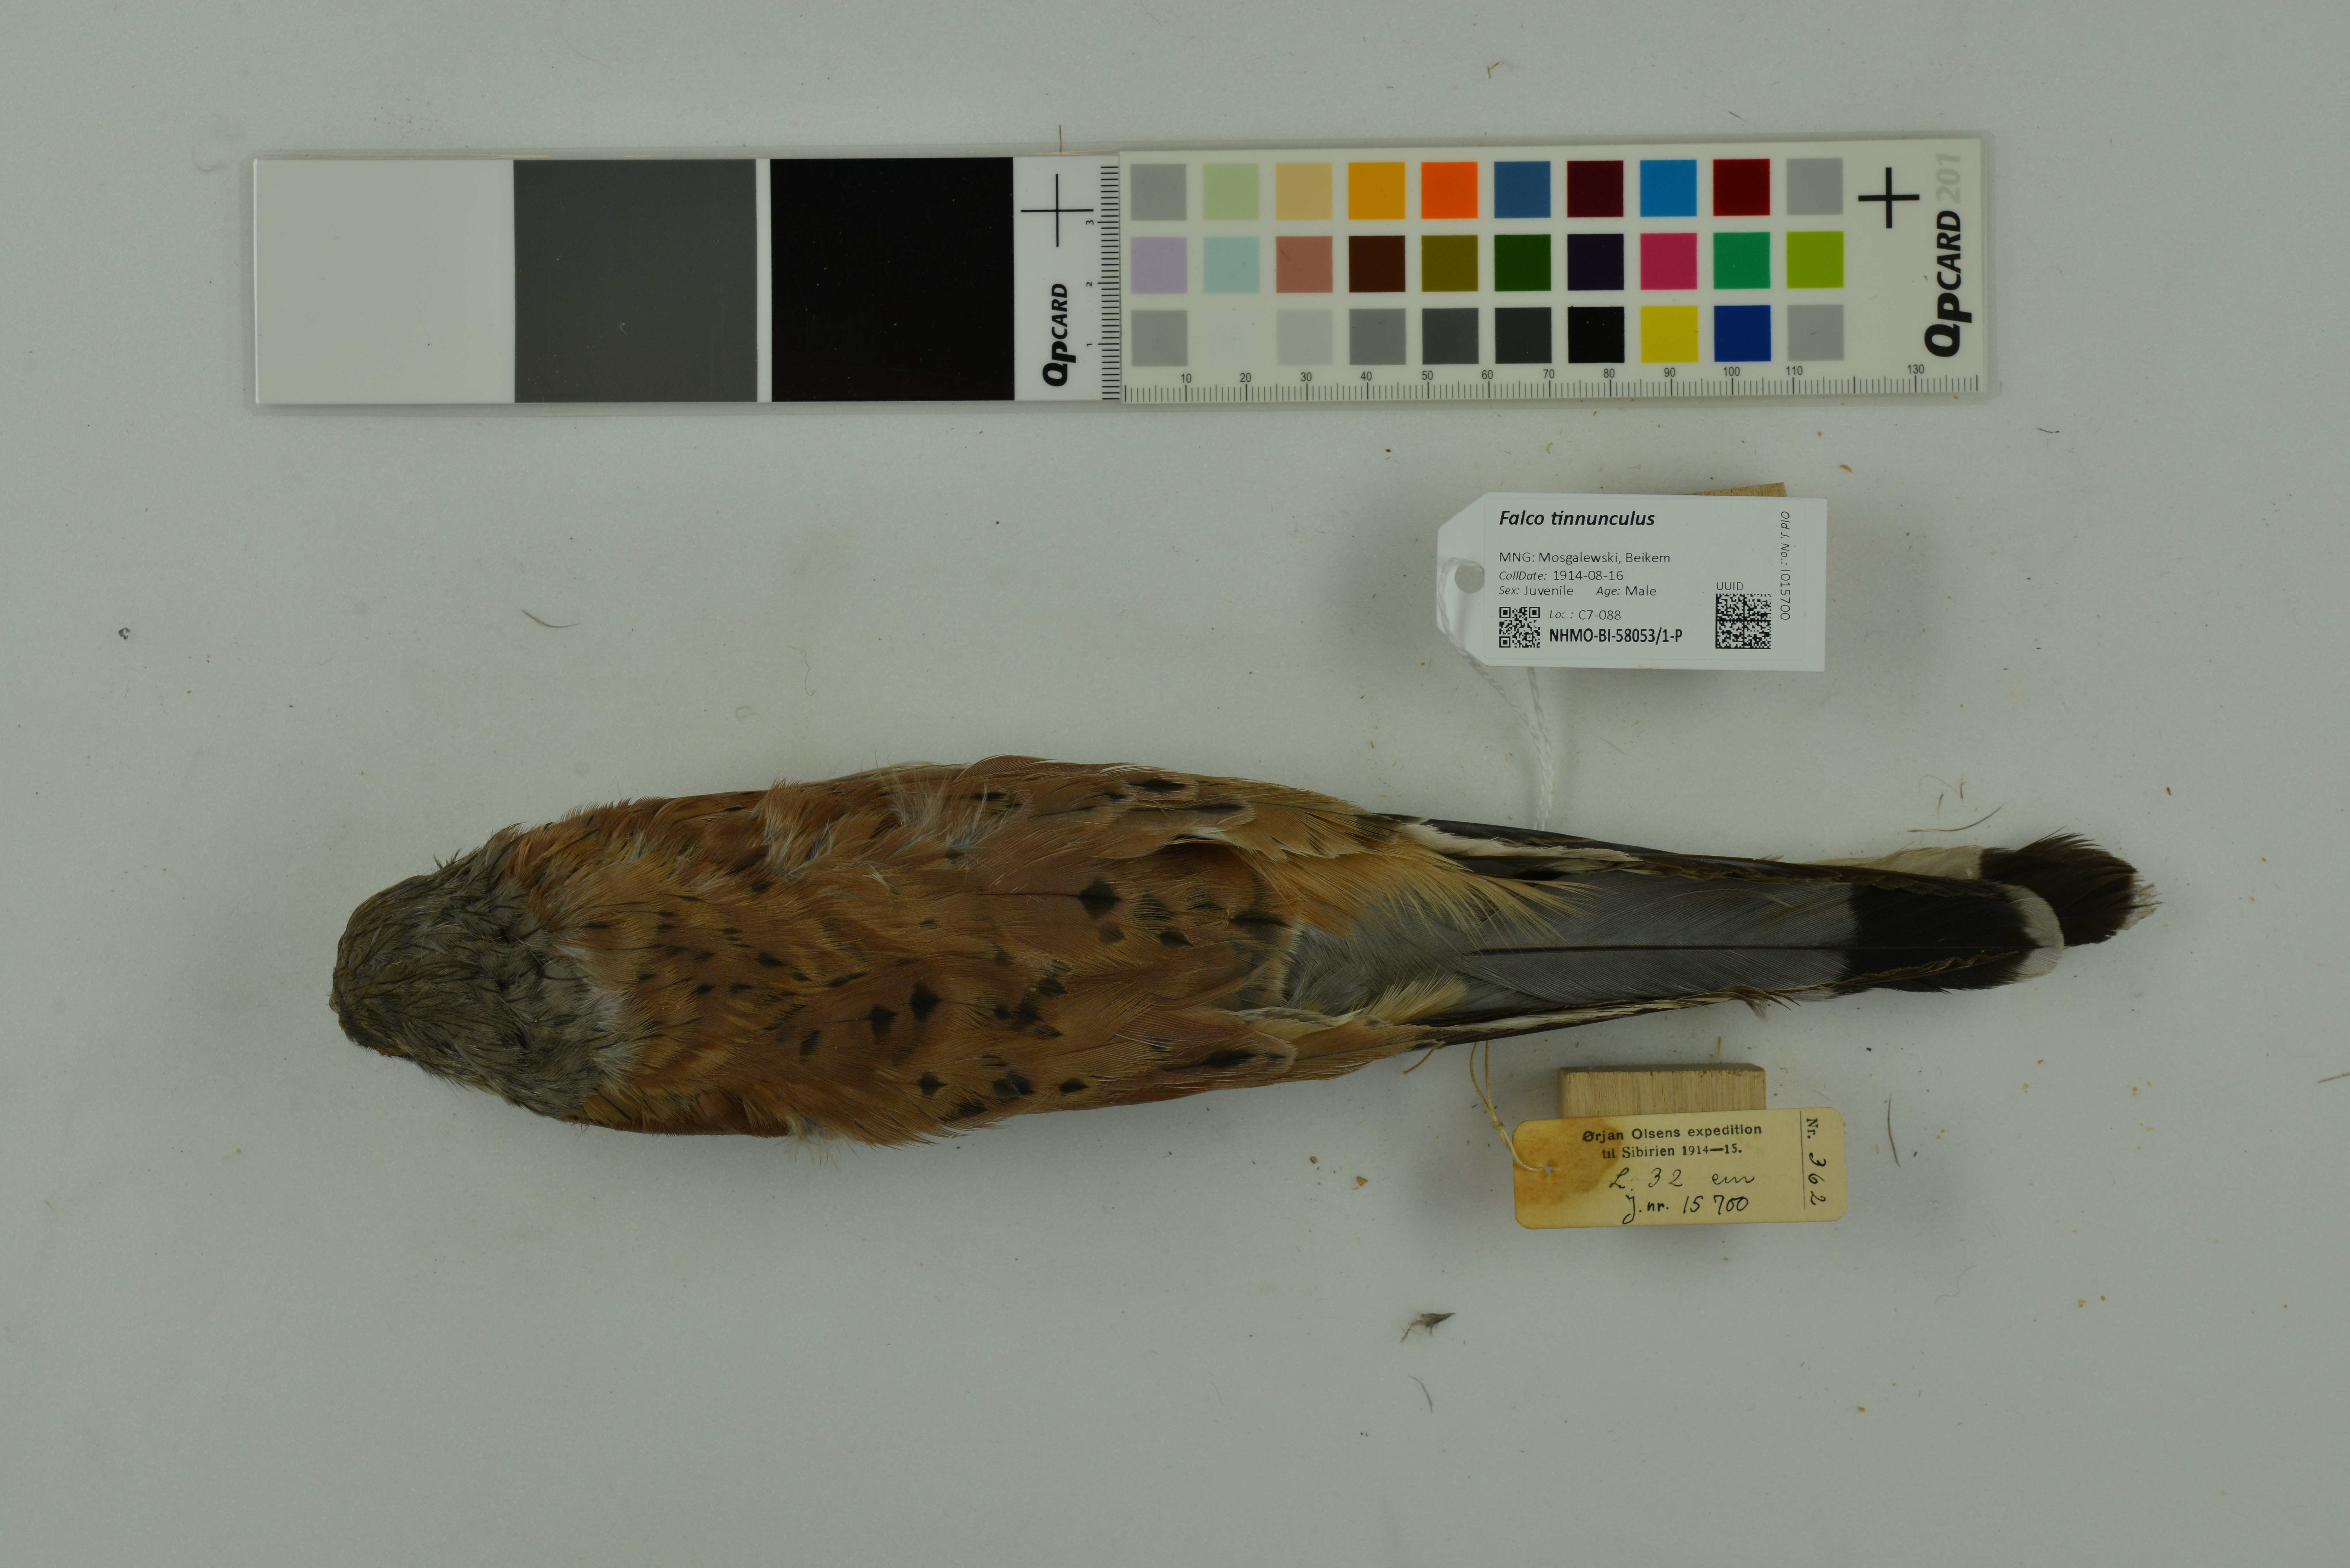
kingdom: Animalia
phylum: Chordata
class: Aves
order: Falconiformes
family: Falconidae
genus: Falco
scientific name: Falco tinnunculus
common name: Common kestrel
